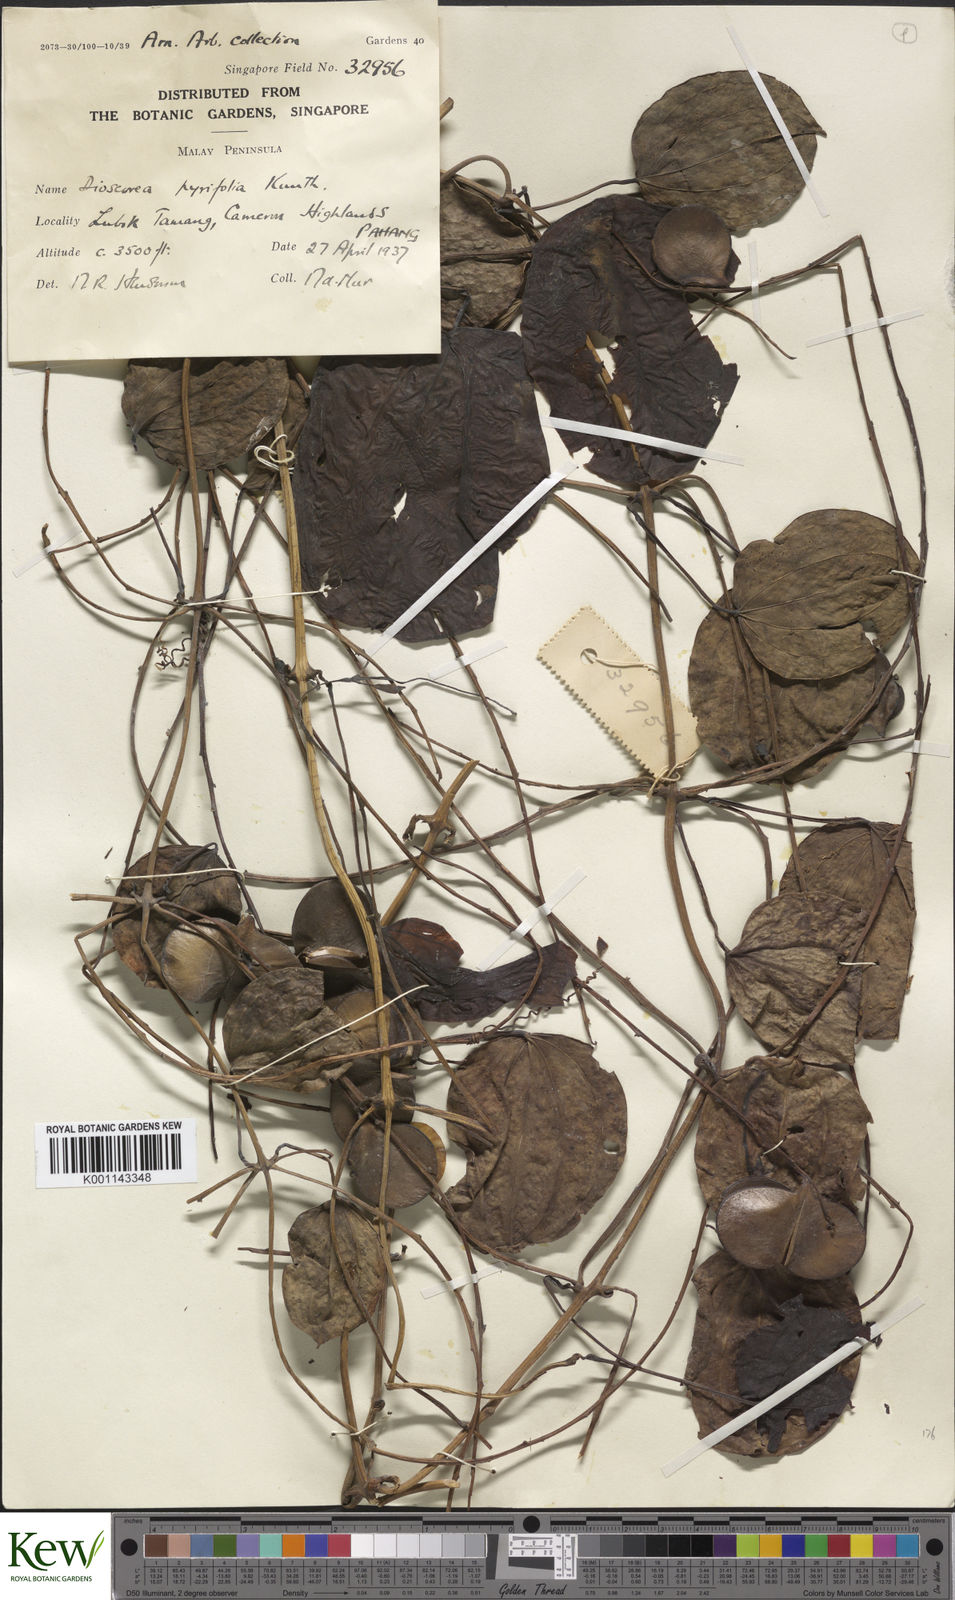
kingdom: Plantae
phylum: Tracheophyta
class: Liliopsida
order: Dioscoreales
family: Dioscoreaceae
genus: Dioscorea
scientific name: Dioscorea pyrifolia
